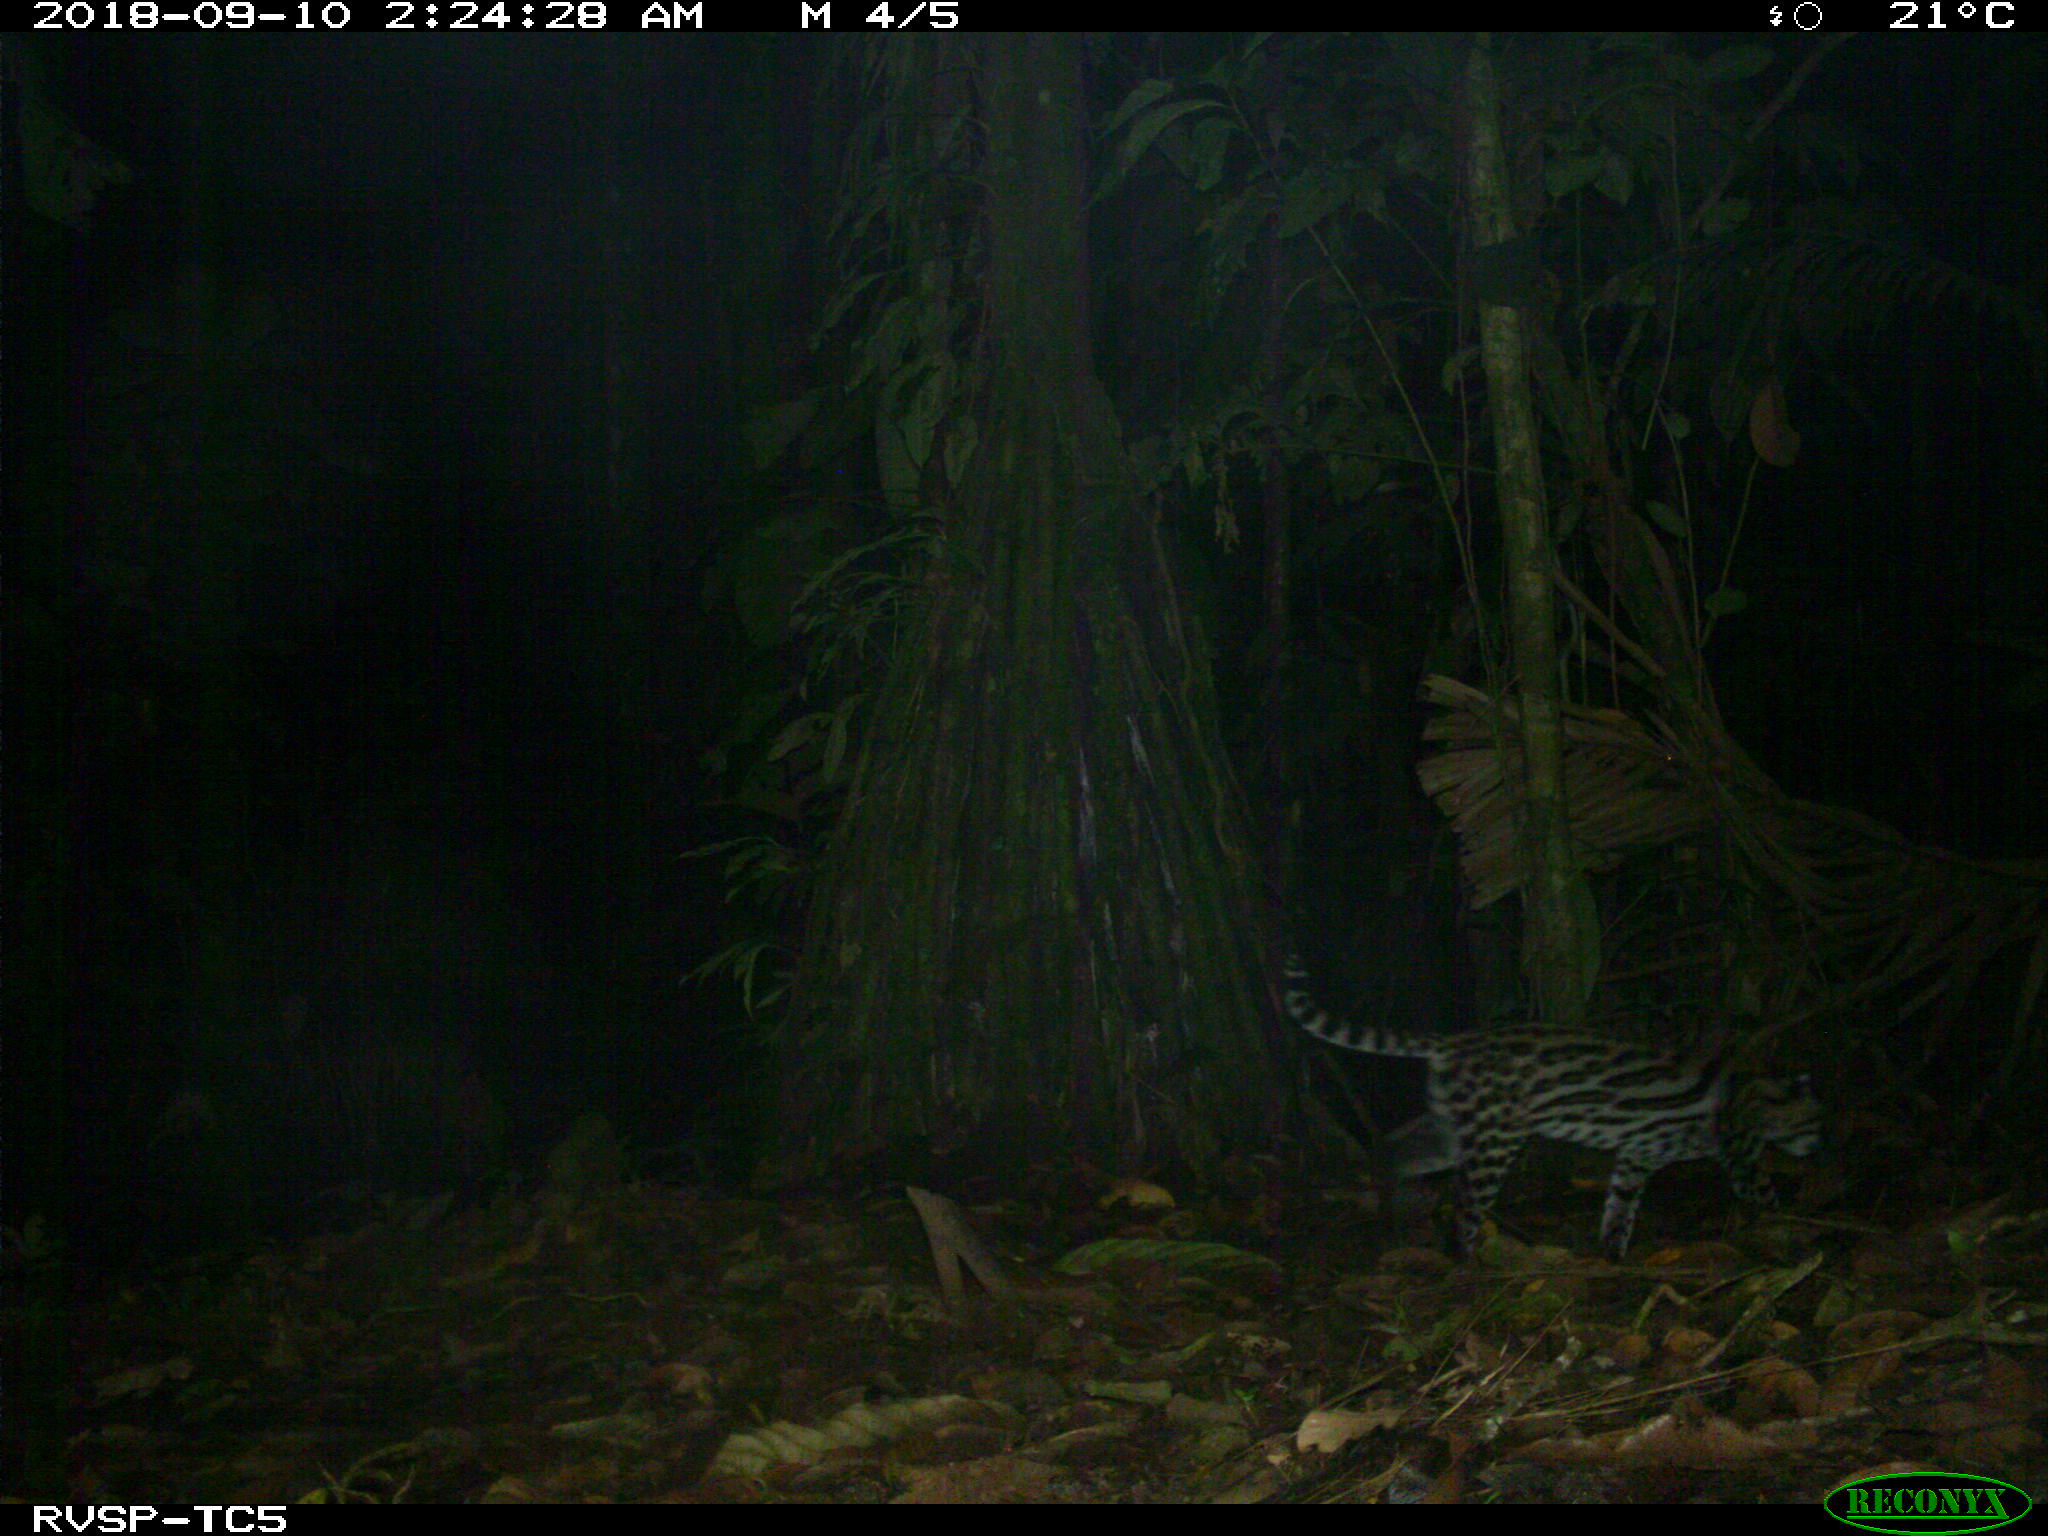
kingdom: Animalia
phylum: Chordata
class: Mammalia
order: Carnivora
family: Felidae
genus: Leopardus
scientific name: Leopardus pardalis
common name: Ocelot
